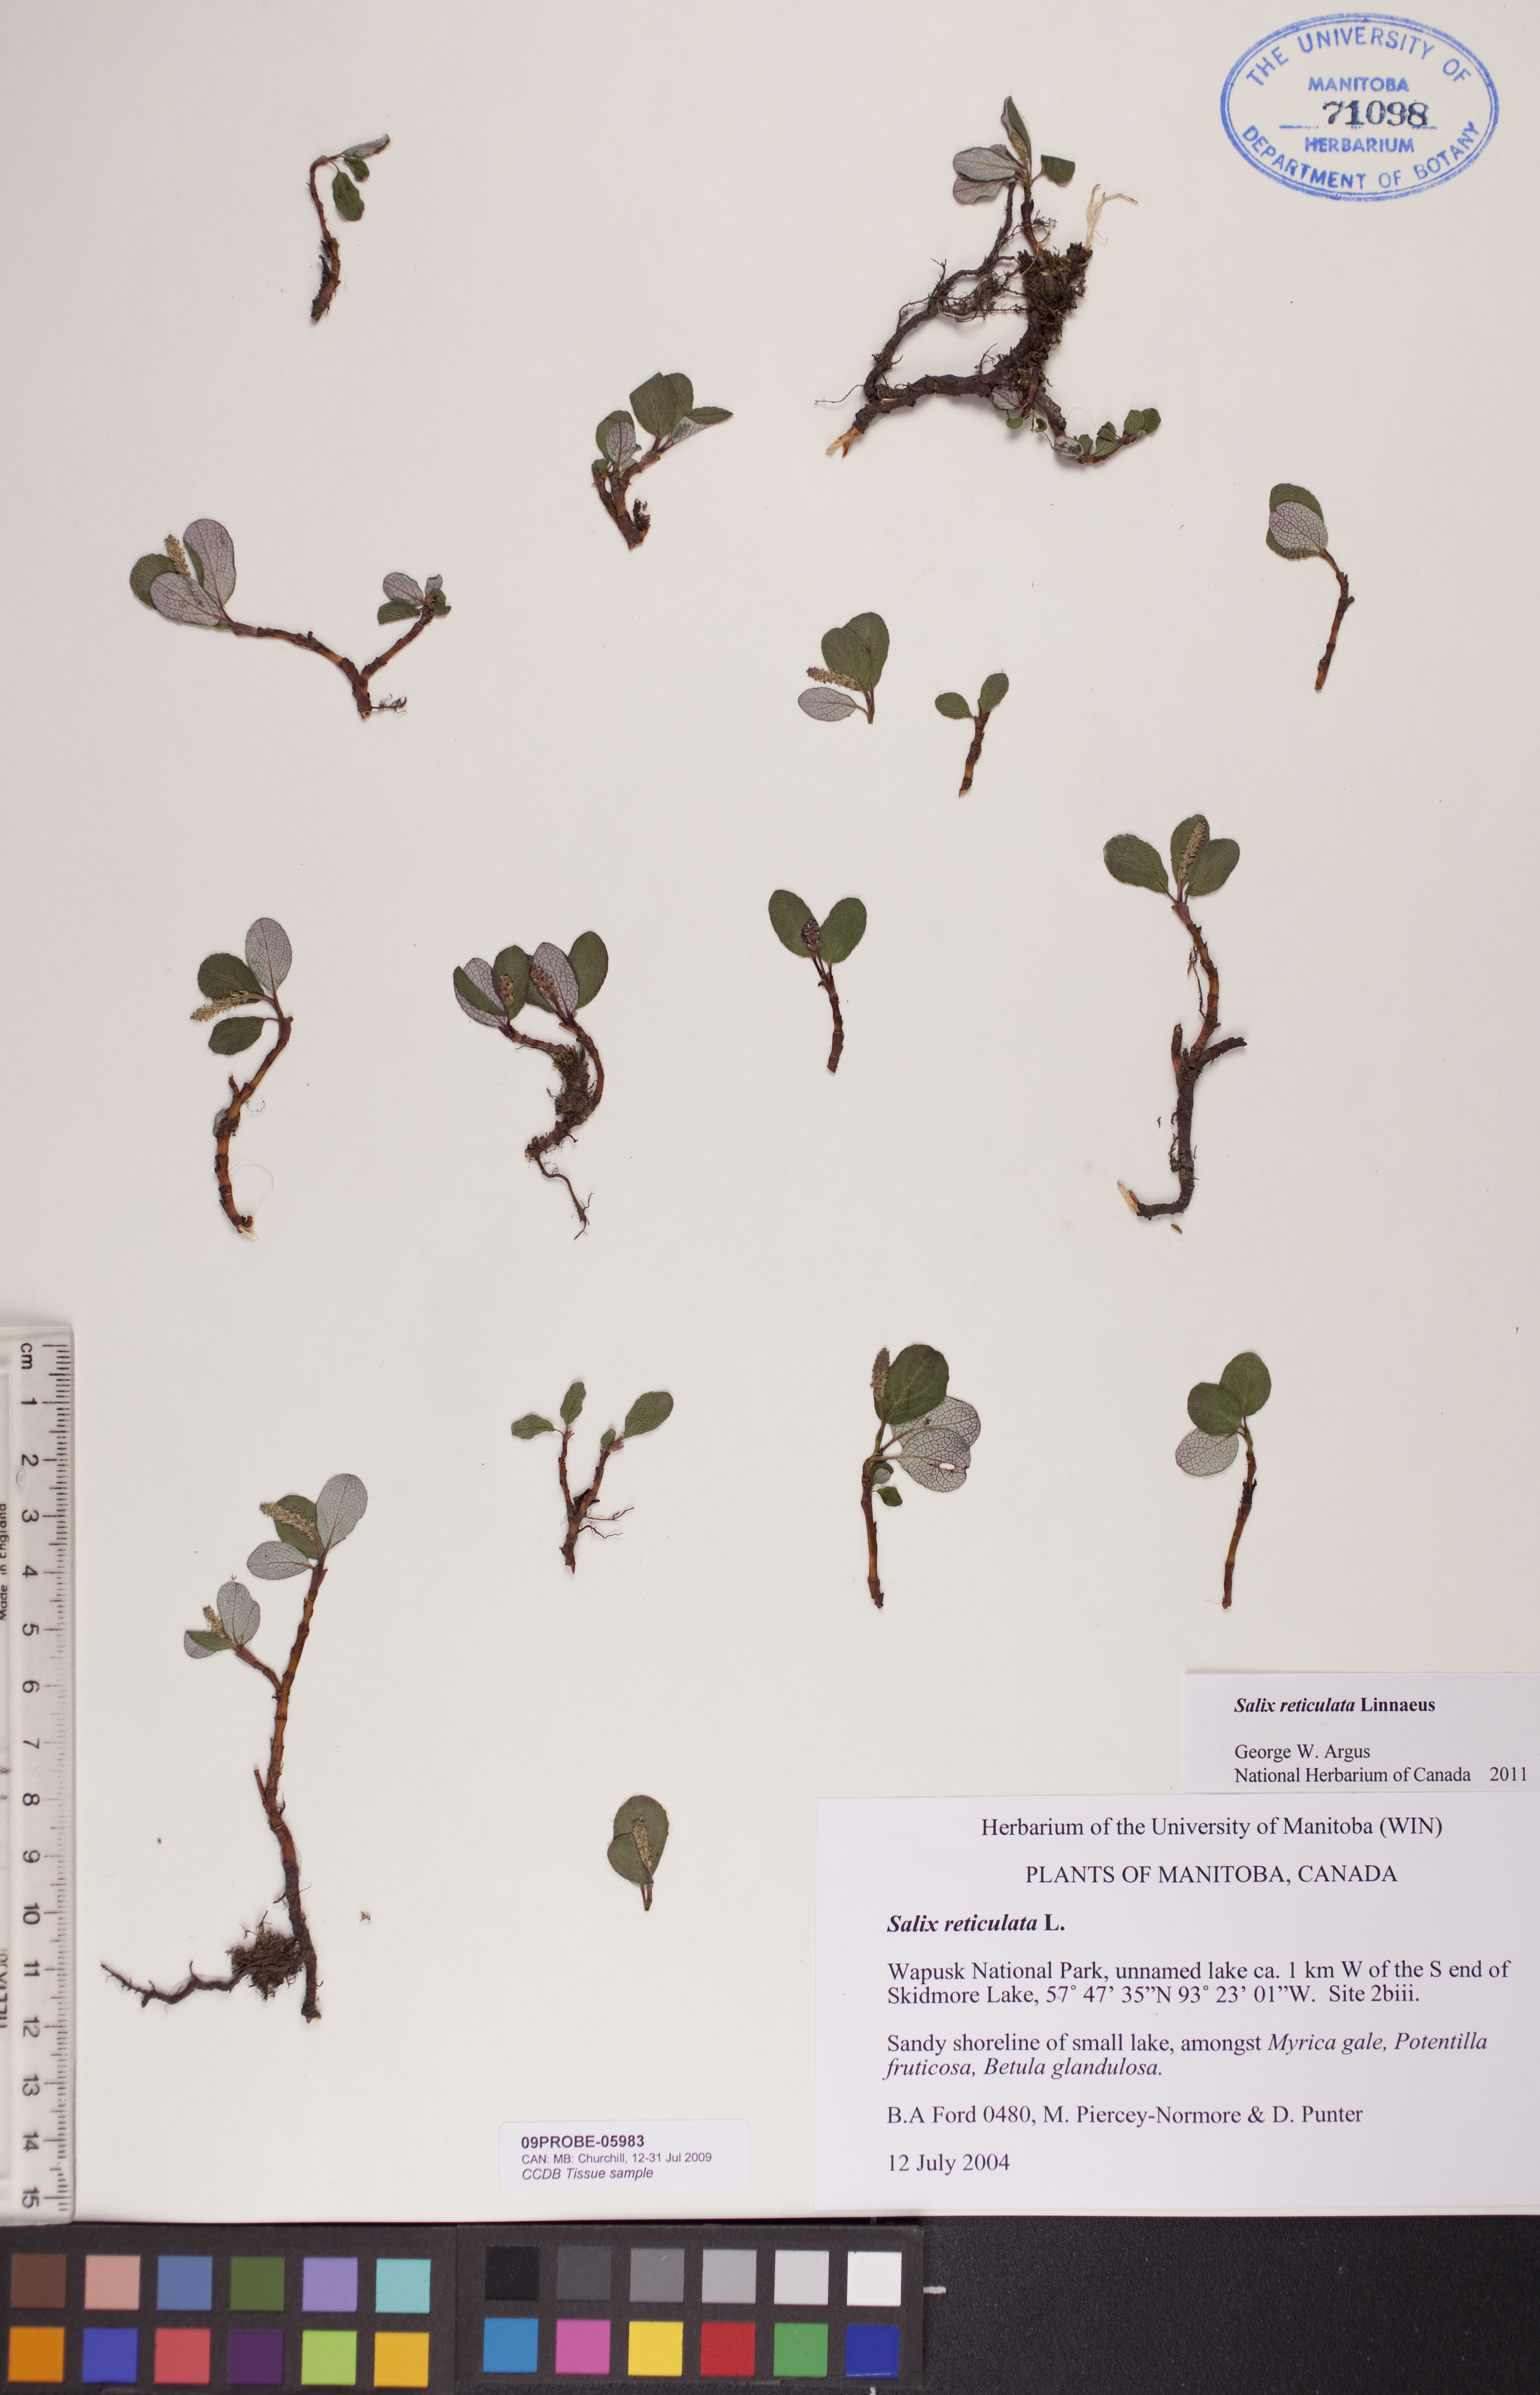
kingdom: Plantae
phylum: Tracheophyta
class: Magnoliopsida
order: Malpighiales
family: Salicaceae
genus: Salix
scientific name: Salix reticulata
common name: Net-leaved willow
